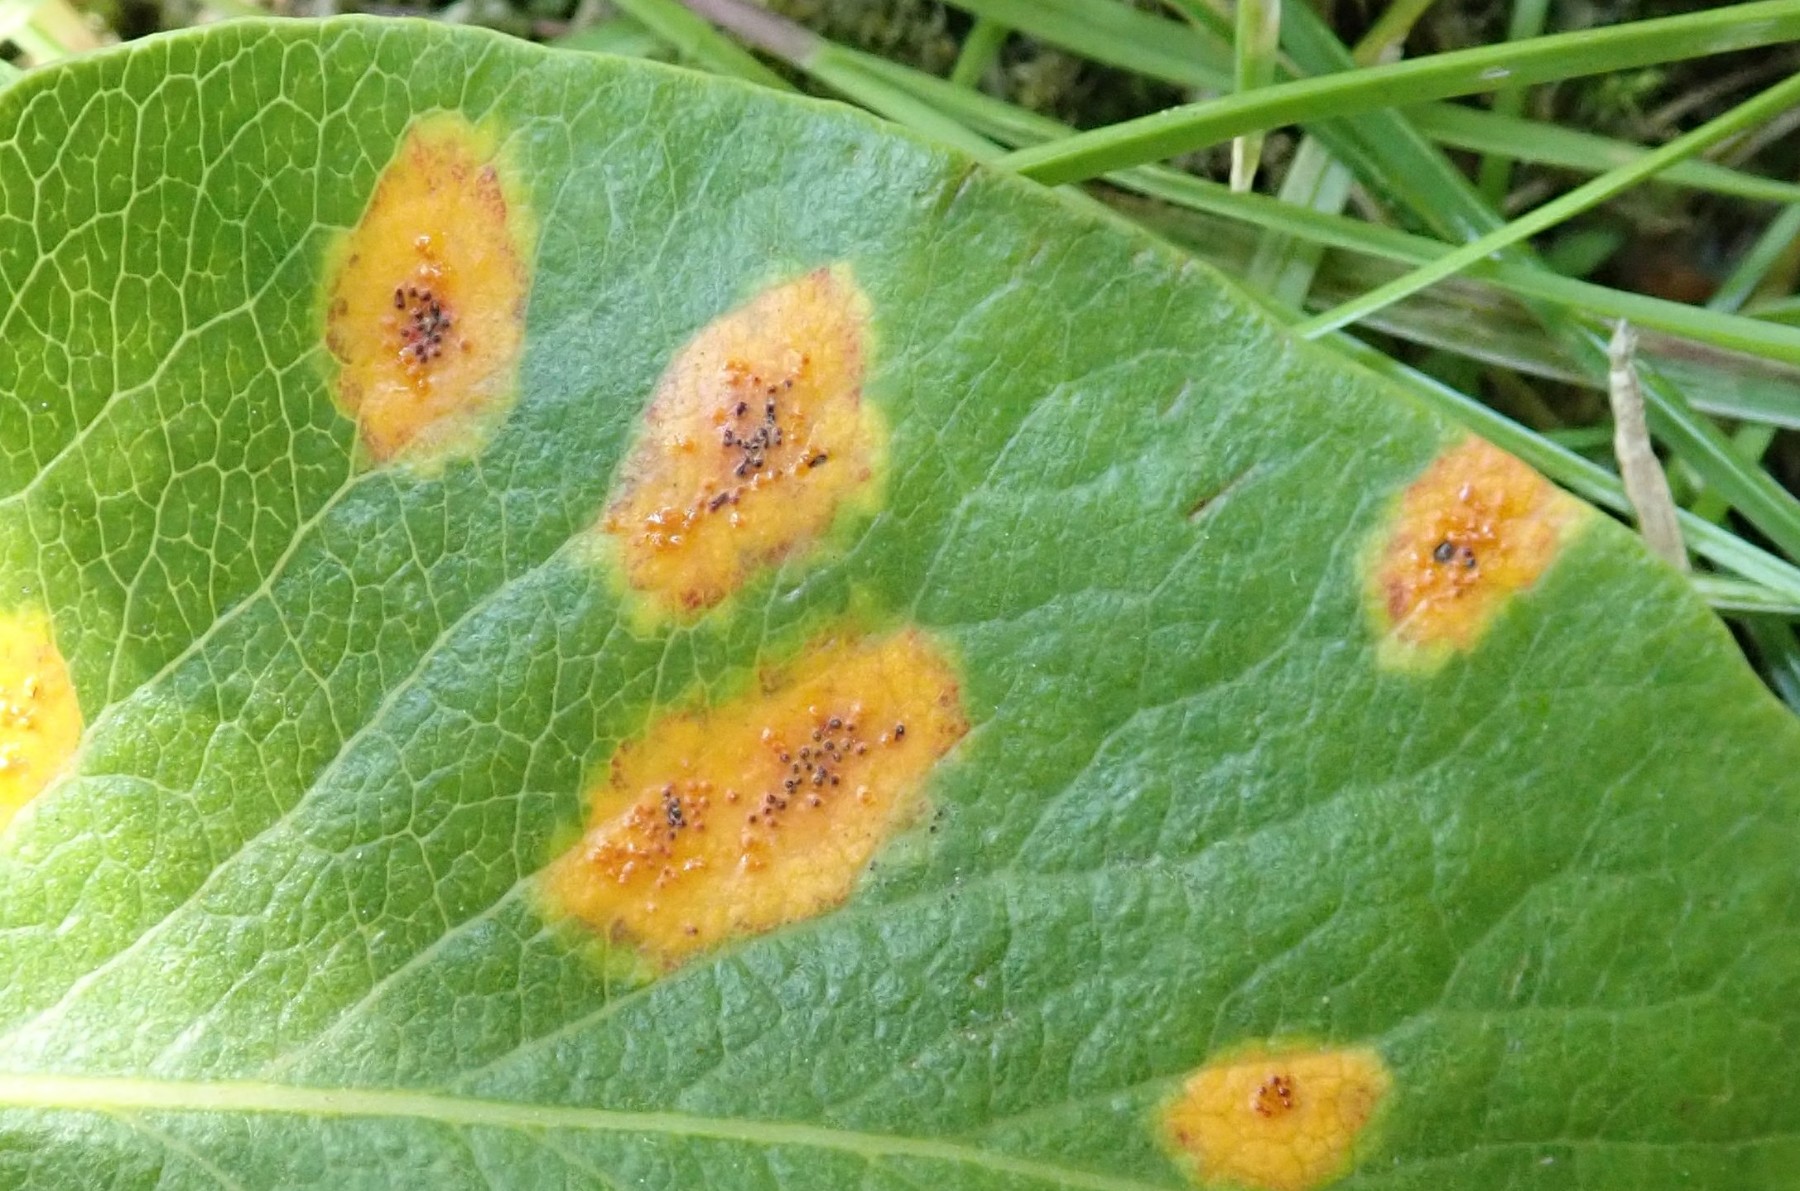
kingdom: Fungi
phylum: Basidiomycota
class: Pucciniomycetes
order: Pucciniales
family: Gymnosporangiaceae
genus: Gymnosporangium
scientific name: Gymnosporangium sabinae
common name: pæregitter-bævrerust
